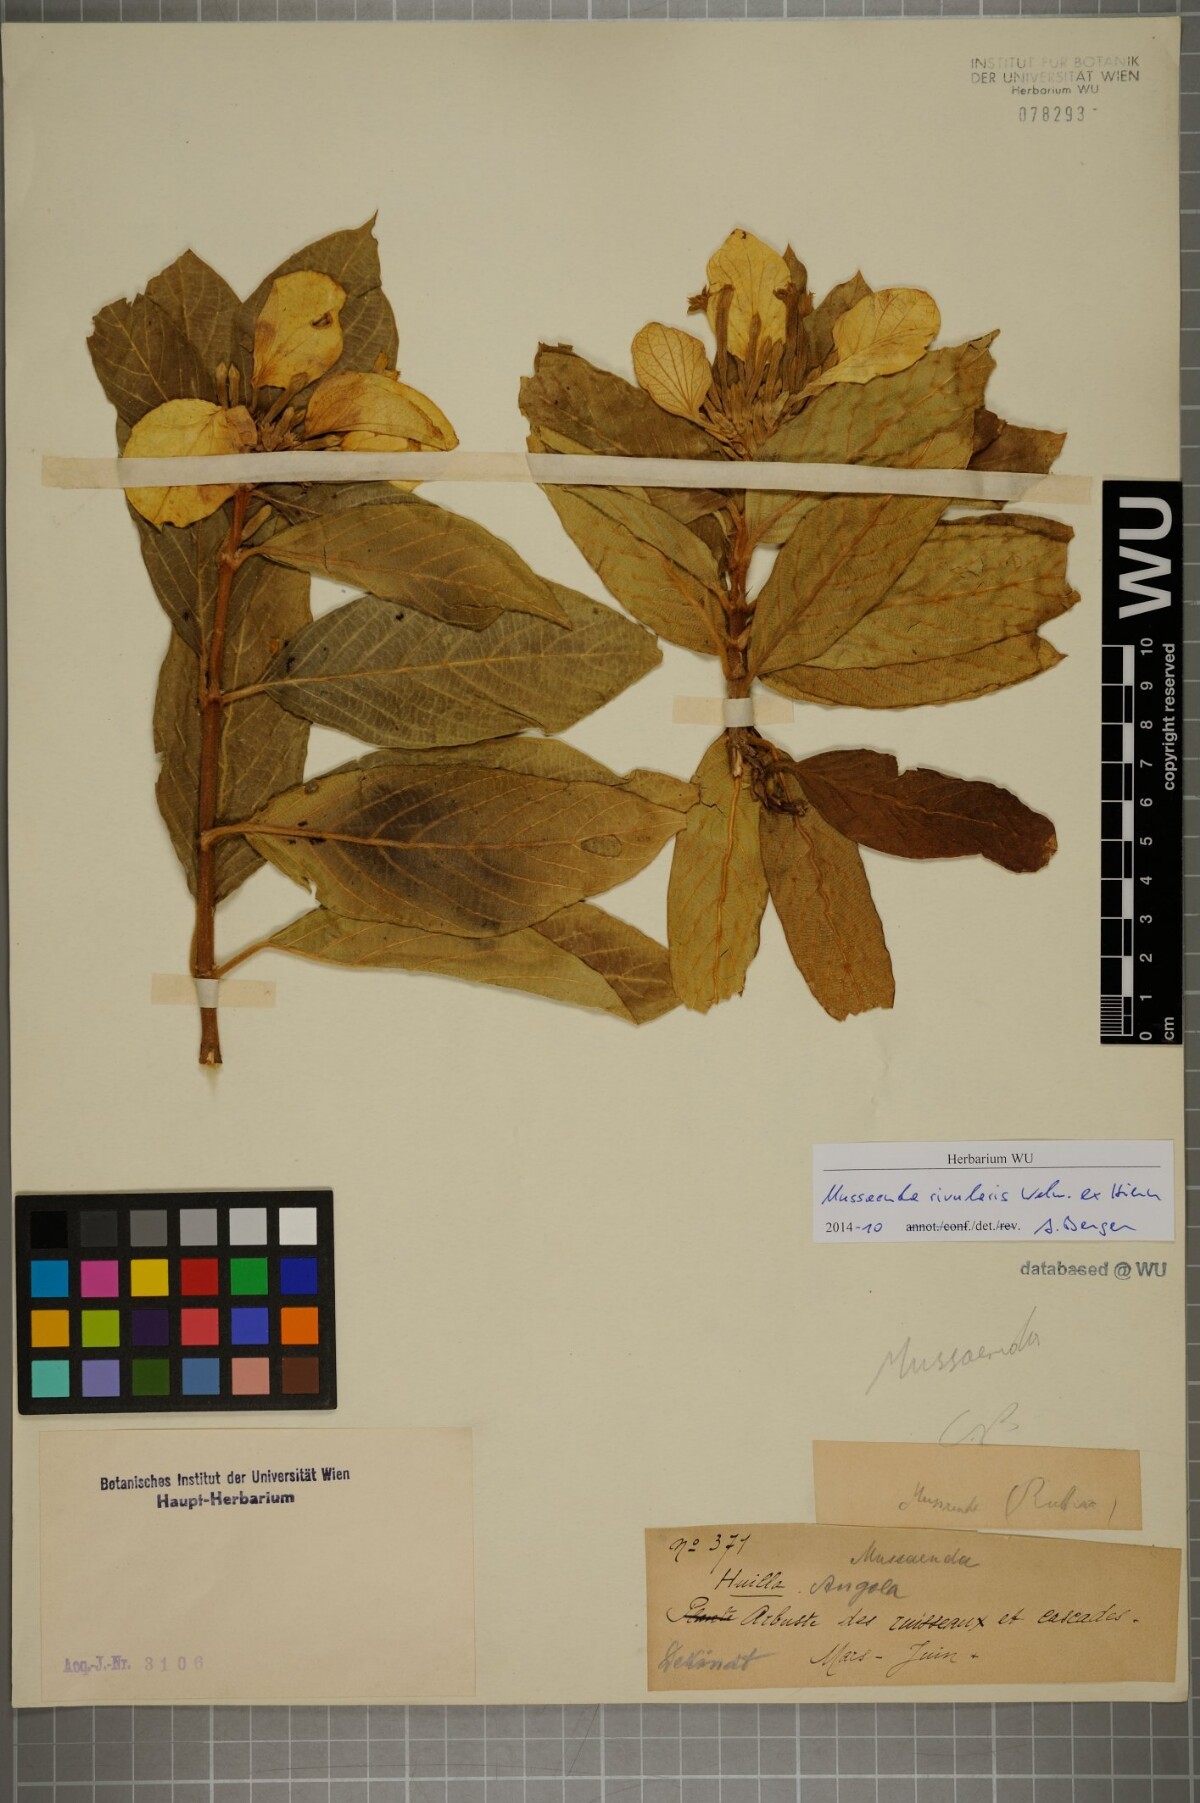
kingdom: Plantae
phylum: Tracheophyta
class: Magnoliopsida
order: Gentianales
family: Rubiaceae
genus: Mussaenda
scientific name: Mussaenda rivularis
